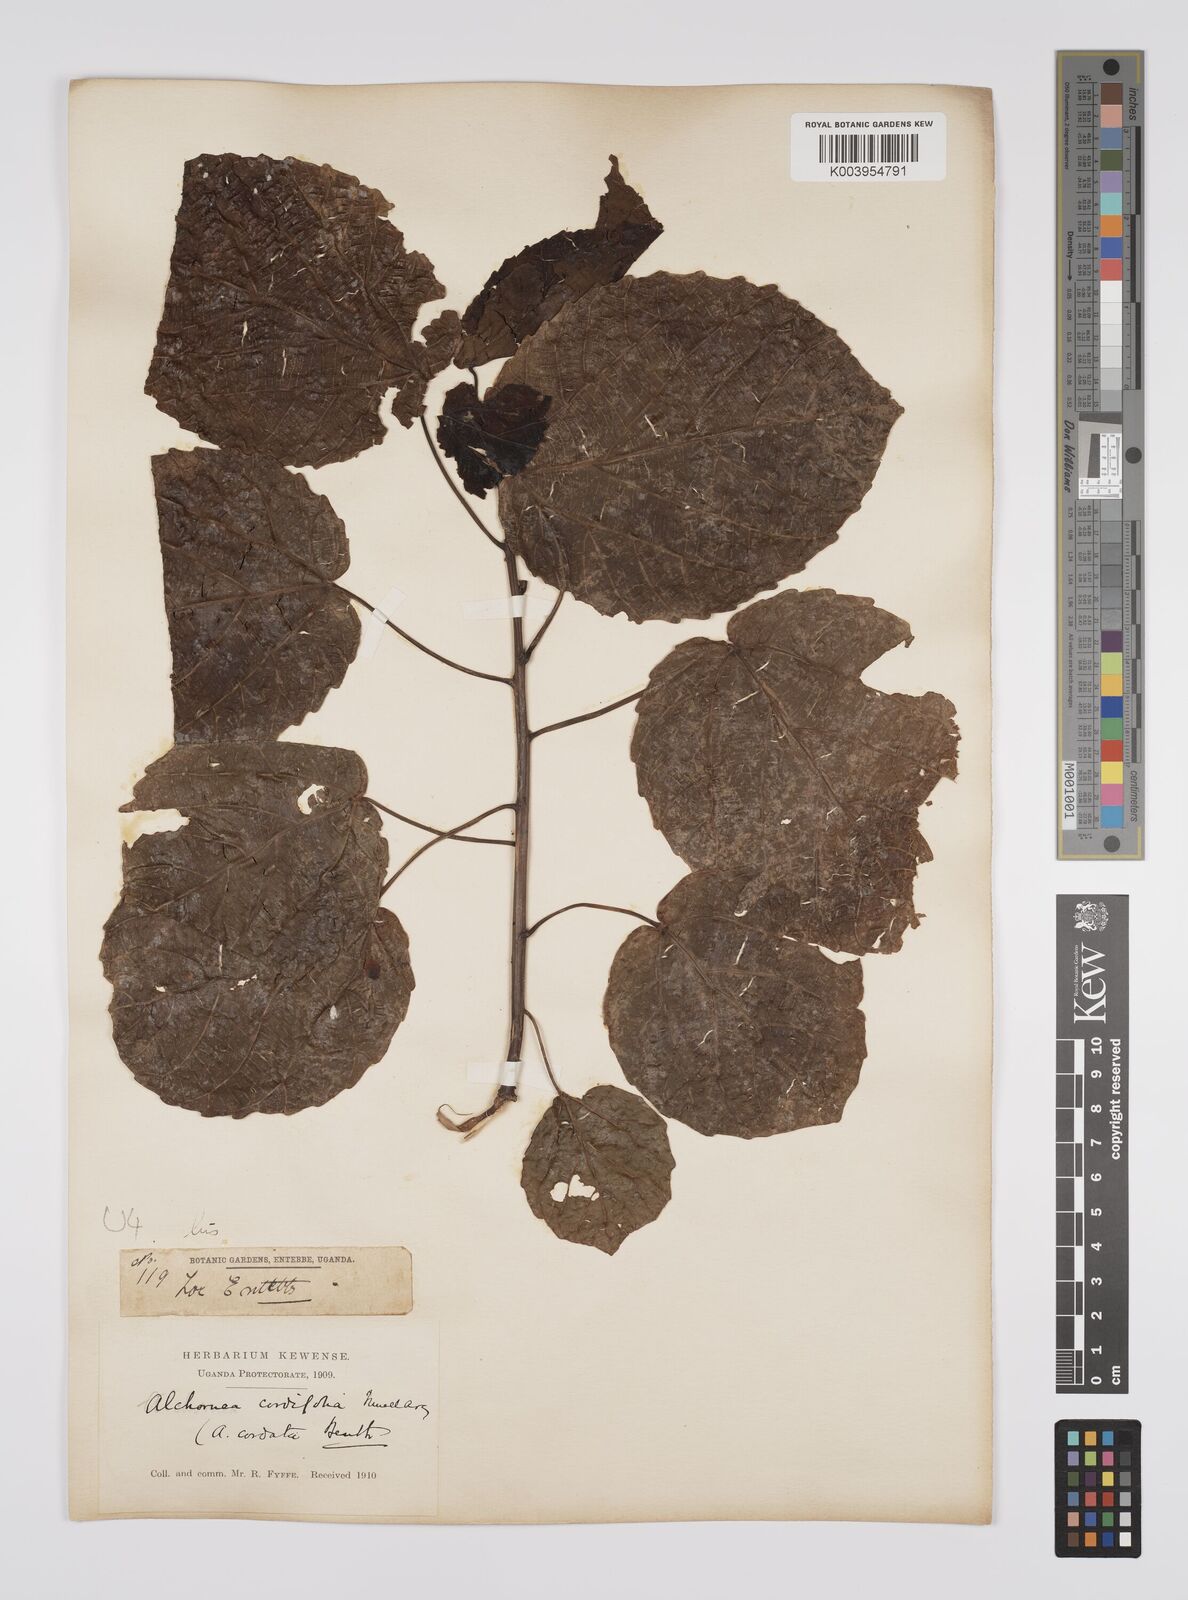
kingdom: Plantae
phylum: Tracheophyta
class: Magnoliopsida
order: Malpighiales
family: Euphorbiaceae
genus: Alchornea
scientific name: Alchornea cordifolia
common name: Christmasbush
